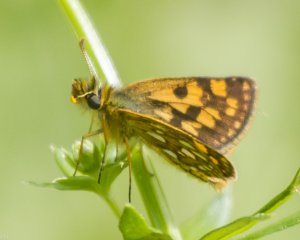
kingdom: Animalia
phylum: Arthropoda
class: Insecta
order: Lepidoptera
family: Hesperiidae
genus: Carterocephalus
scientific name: Carterocephalus palaemon
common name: Chequered Skipper
